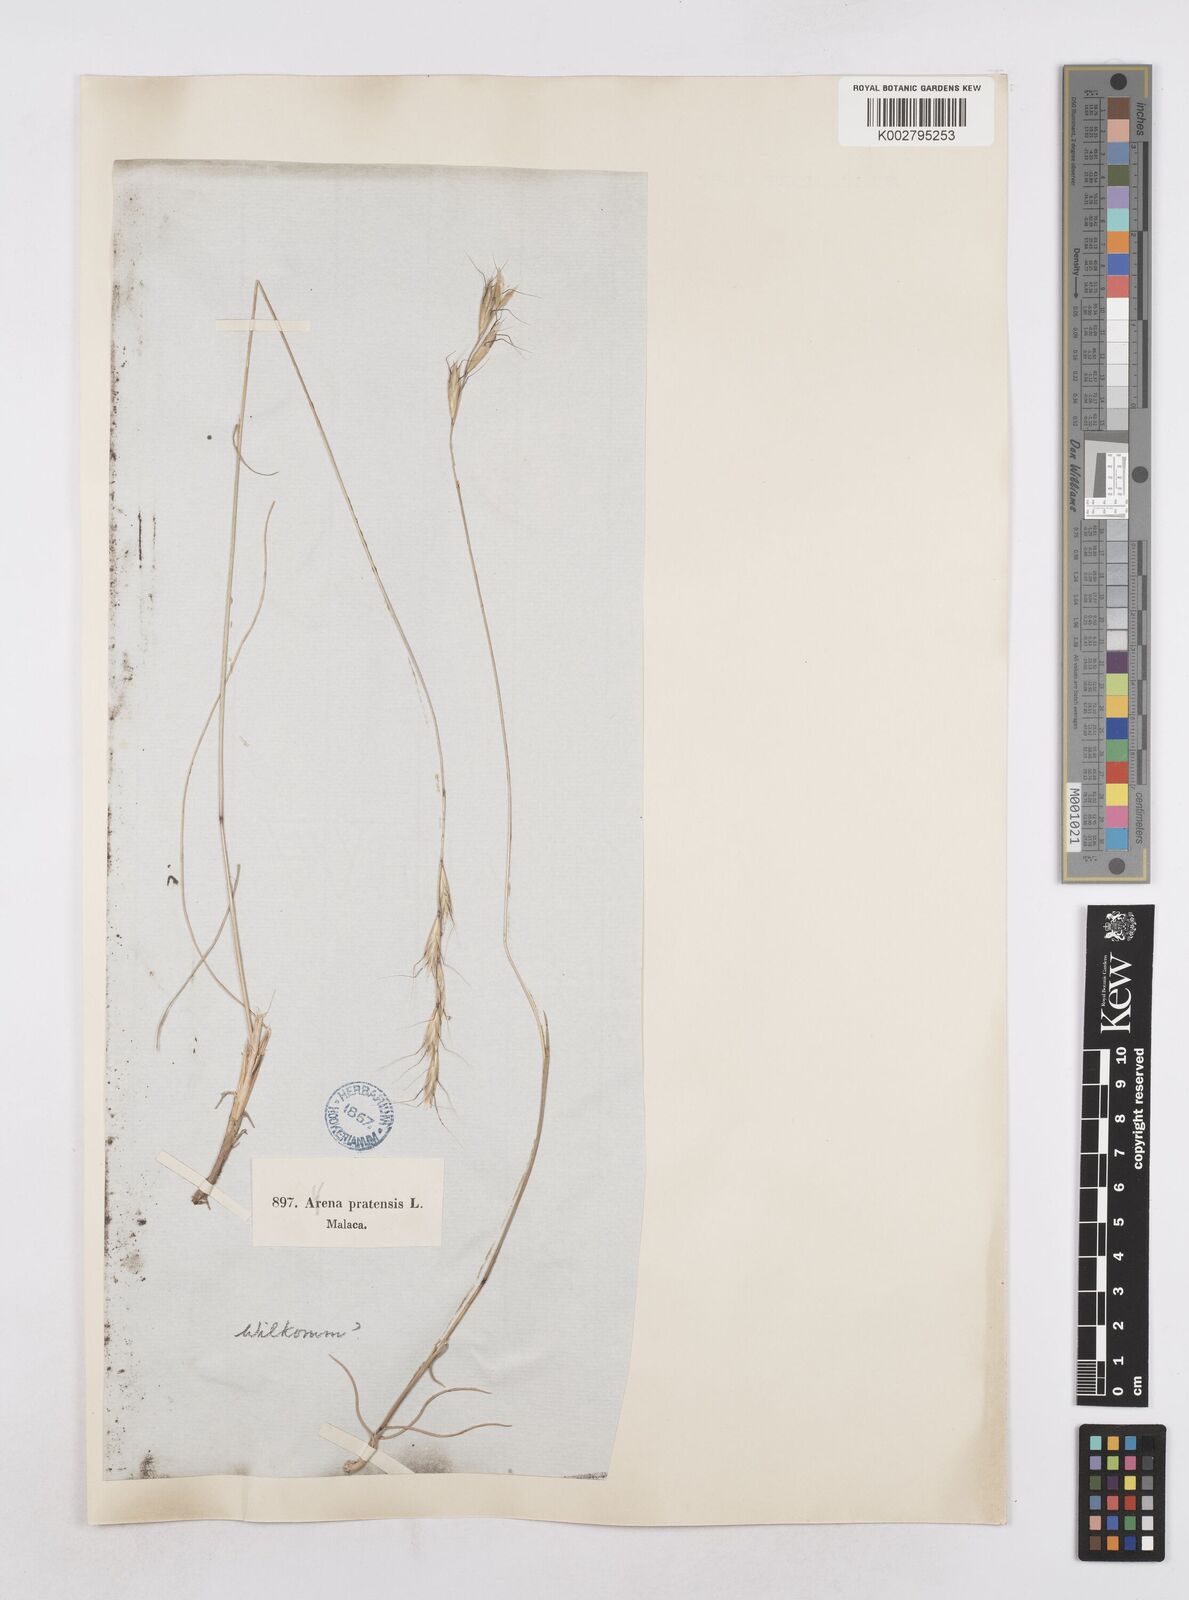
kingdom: Plantae
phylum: Tracheophyta
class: Liliopsida
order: Poales
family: Poaceae
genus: Helictochloa
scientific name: Helictochloa bromoides
